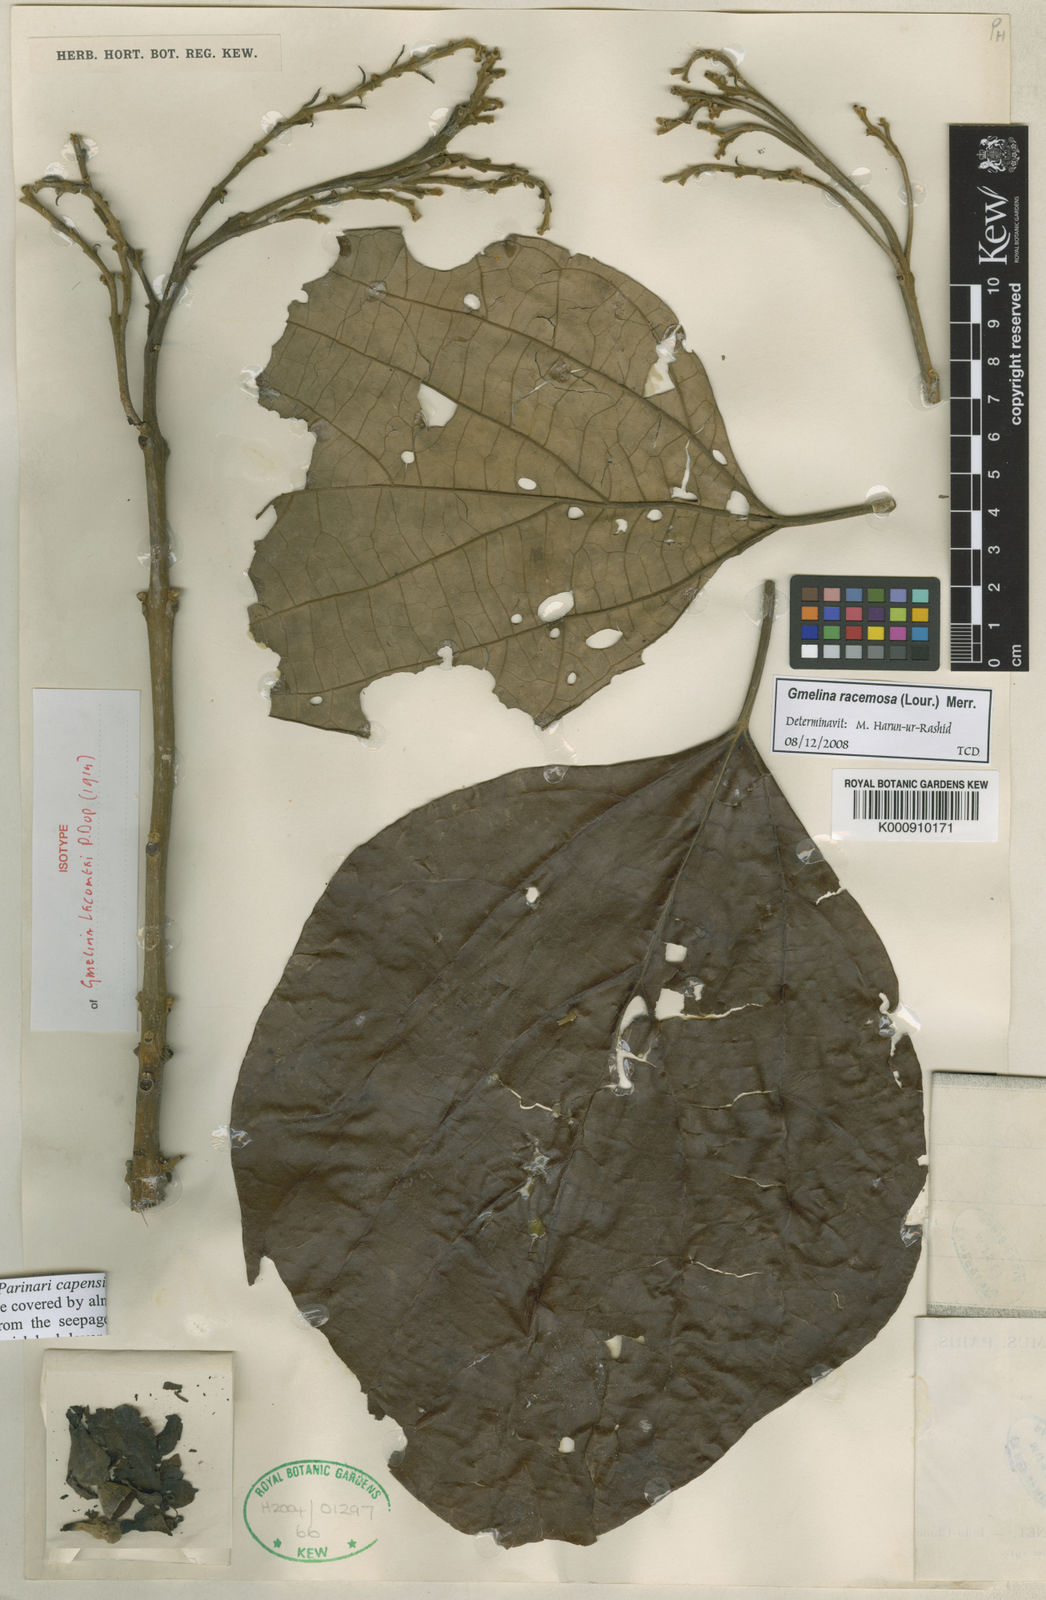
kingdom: Plantae
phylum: Tracheophyta
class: Magnoliopsida
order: Lamiales
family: Lamiaceae
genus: Gmelina
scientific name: Gmelina lecomtei
